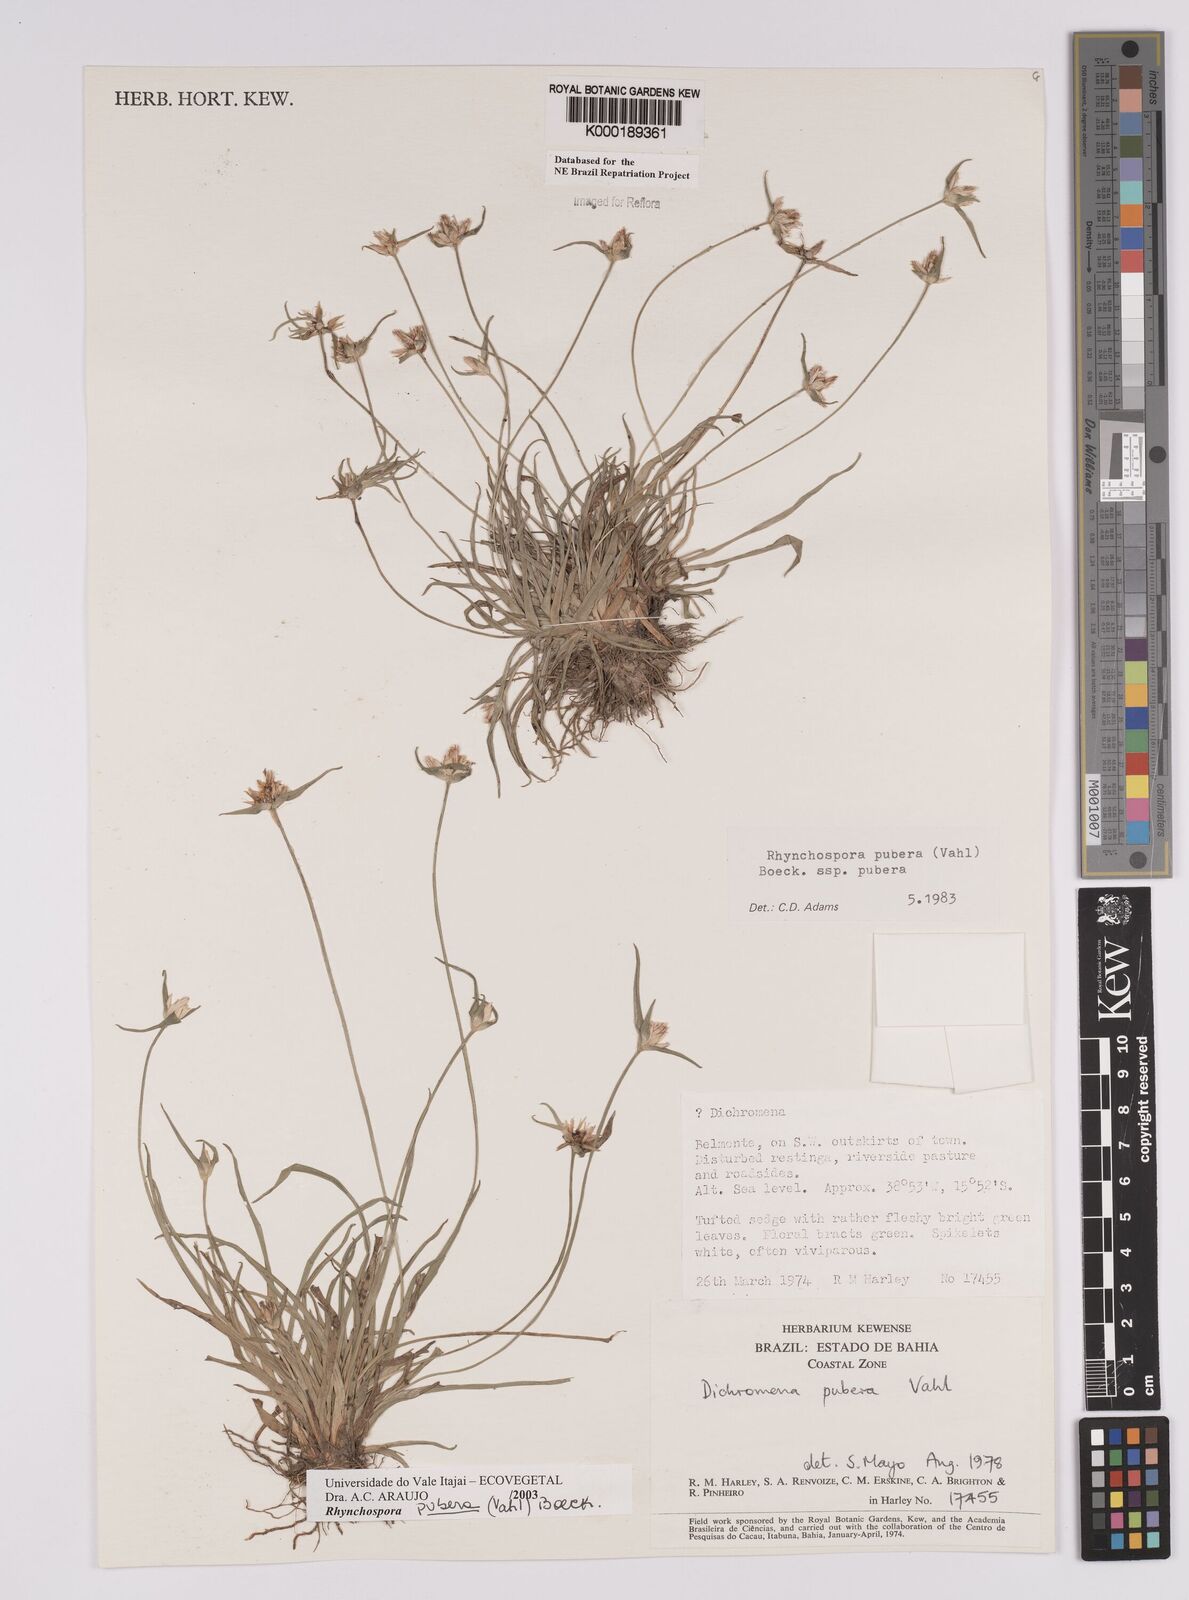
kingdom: Plantae
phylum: Tracheophyta
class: Liliopsida
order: Poales
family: Cyperaceae
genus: Rhynchospora
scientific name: Rhynchospora pubera
